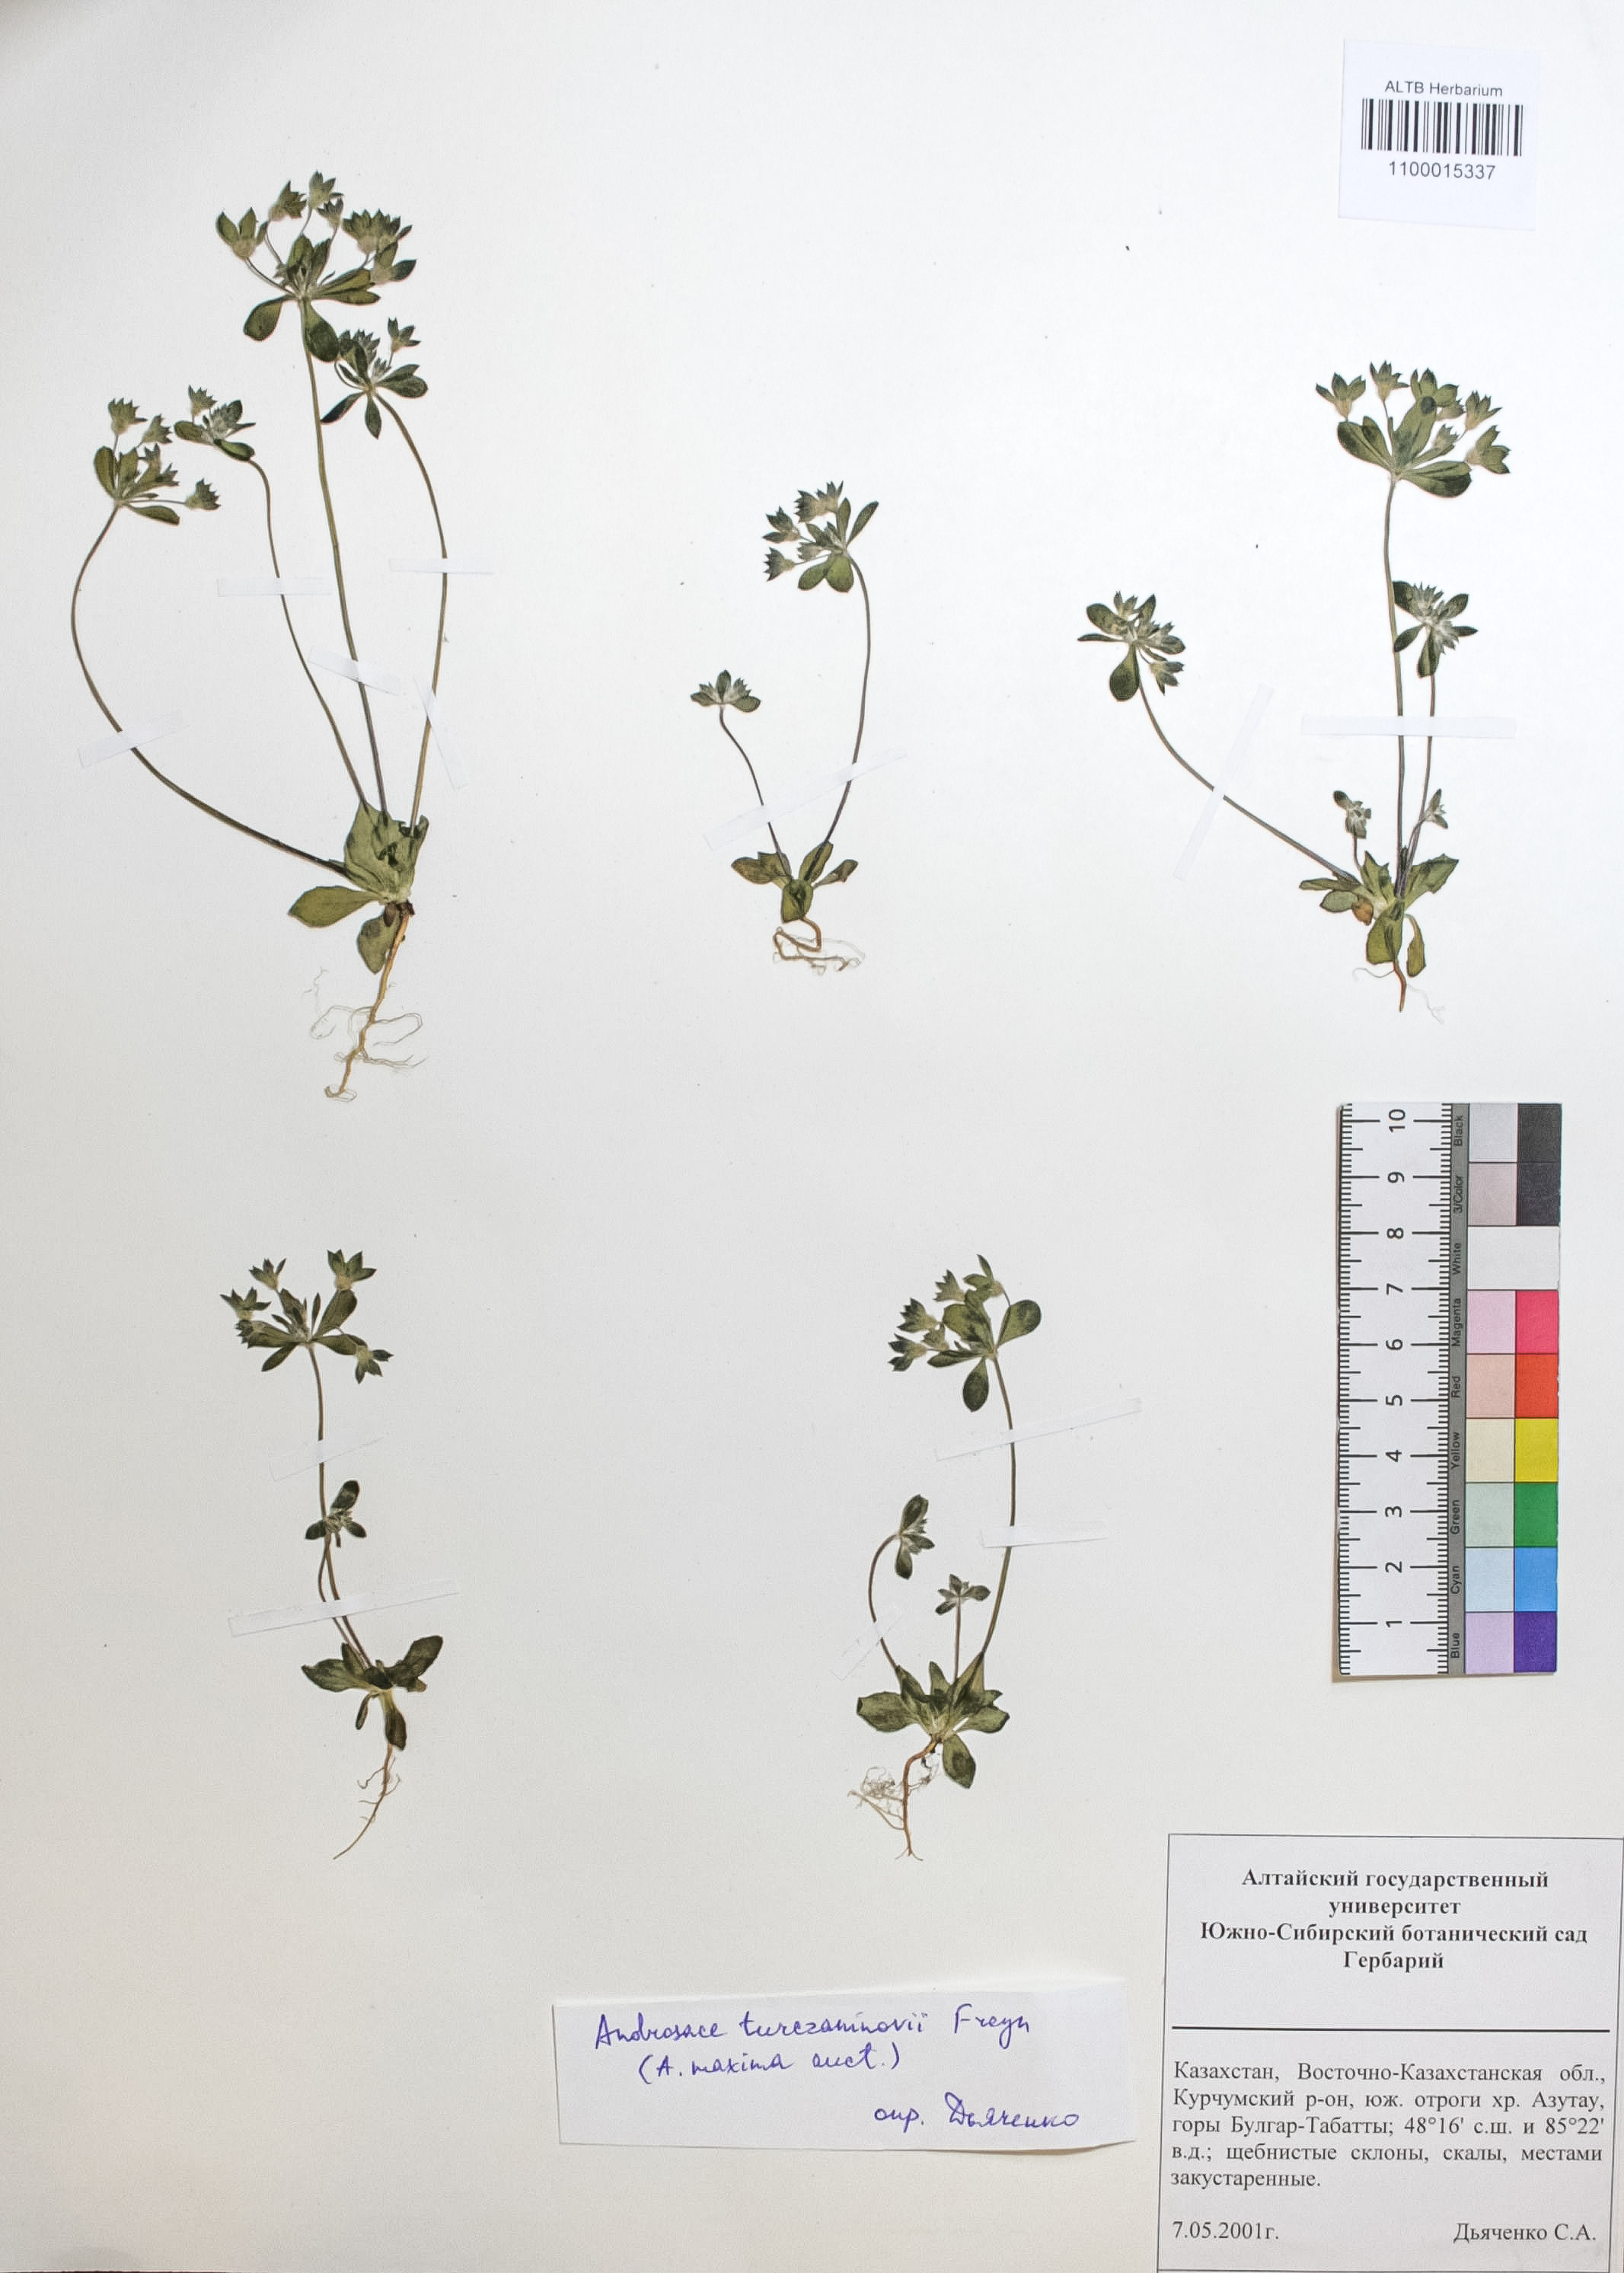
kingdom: Plantae
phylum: Tracheophyta
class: Magnoliopsida
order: Ericales
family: Primulaceae
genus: Androsace
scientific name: Androsace maxima
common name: Annual androsace
